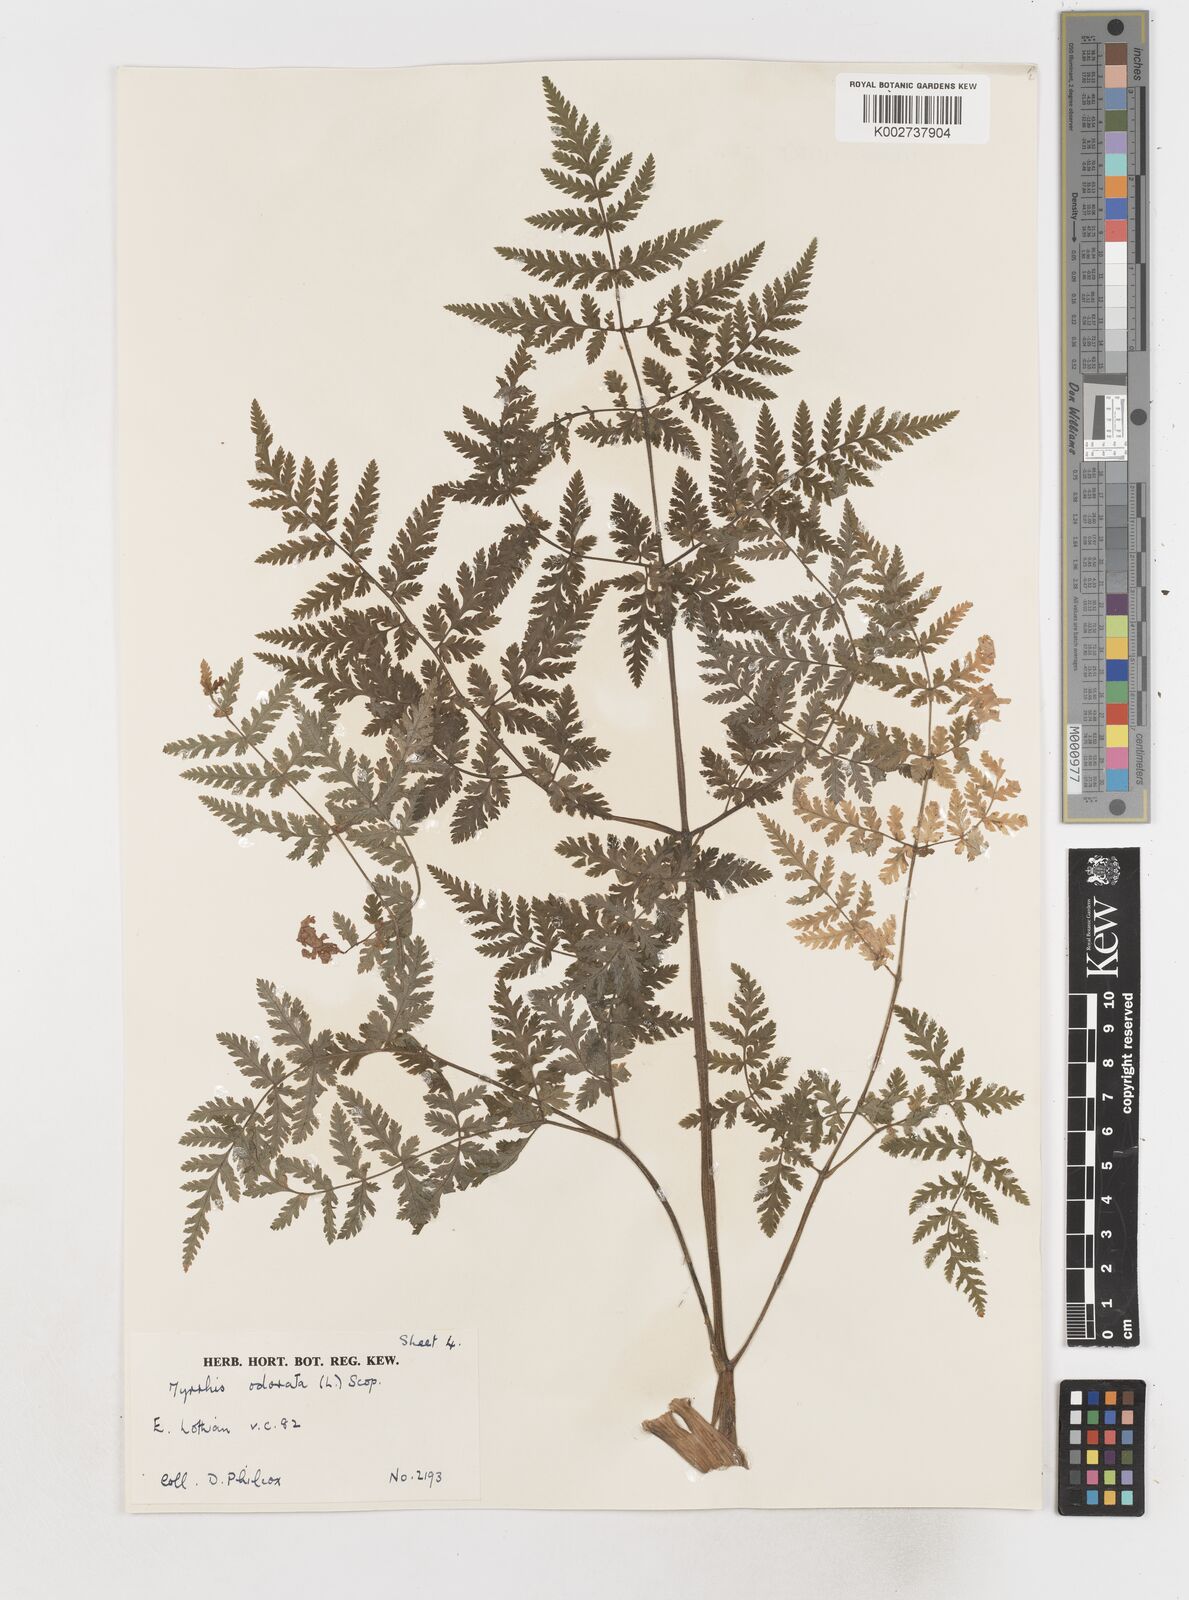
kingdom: Plantae
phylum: Tracheophyta
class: Magnoliopsida
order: Apiales
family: Apiaceae
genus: Myrrhis
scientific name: Myrrhis odorata
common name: Sweet cicely
